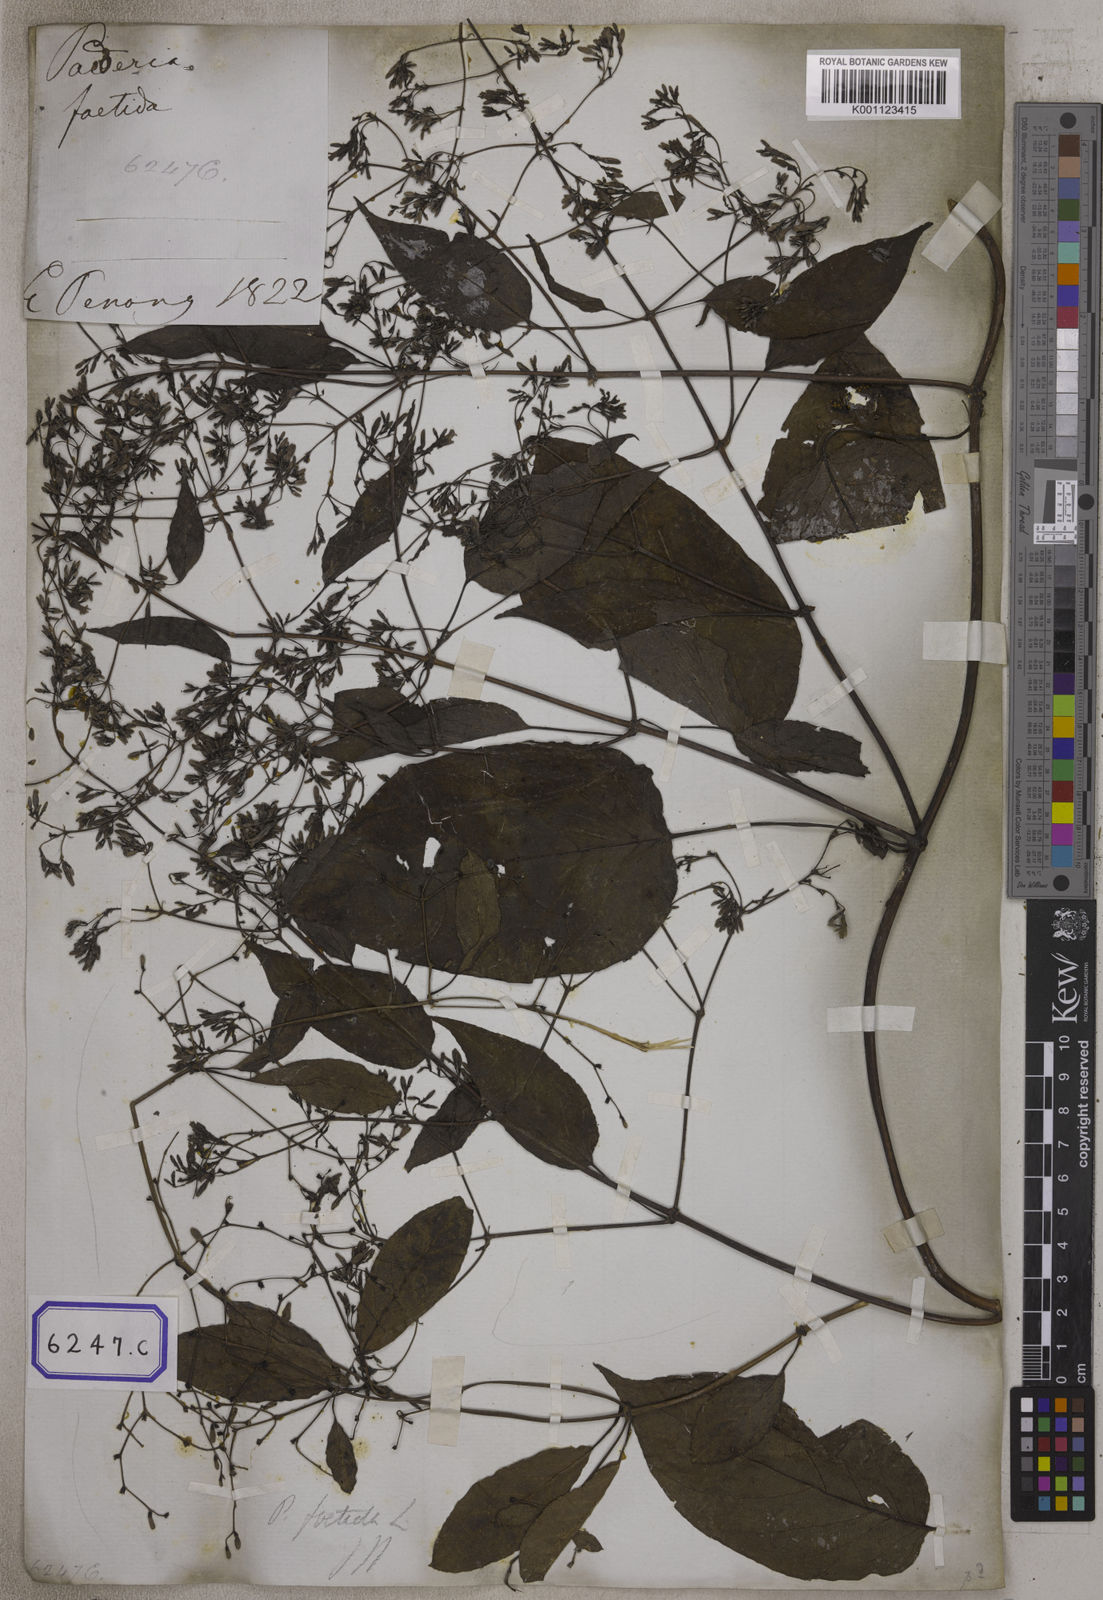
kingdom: Plantae
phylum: Tracheophyta
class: Magnoliopsida
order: Gentianales
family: Rubiaceae
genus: Paederia
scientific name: Paederia
